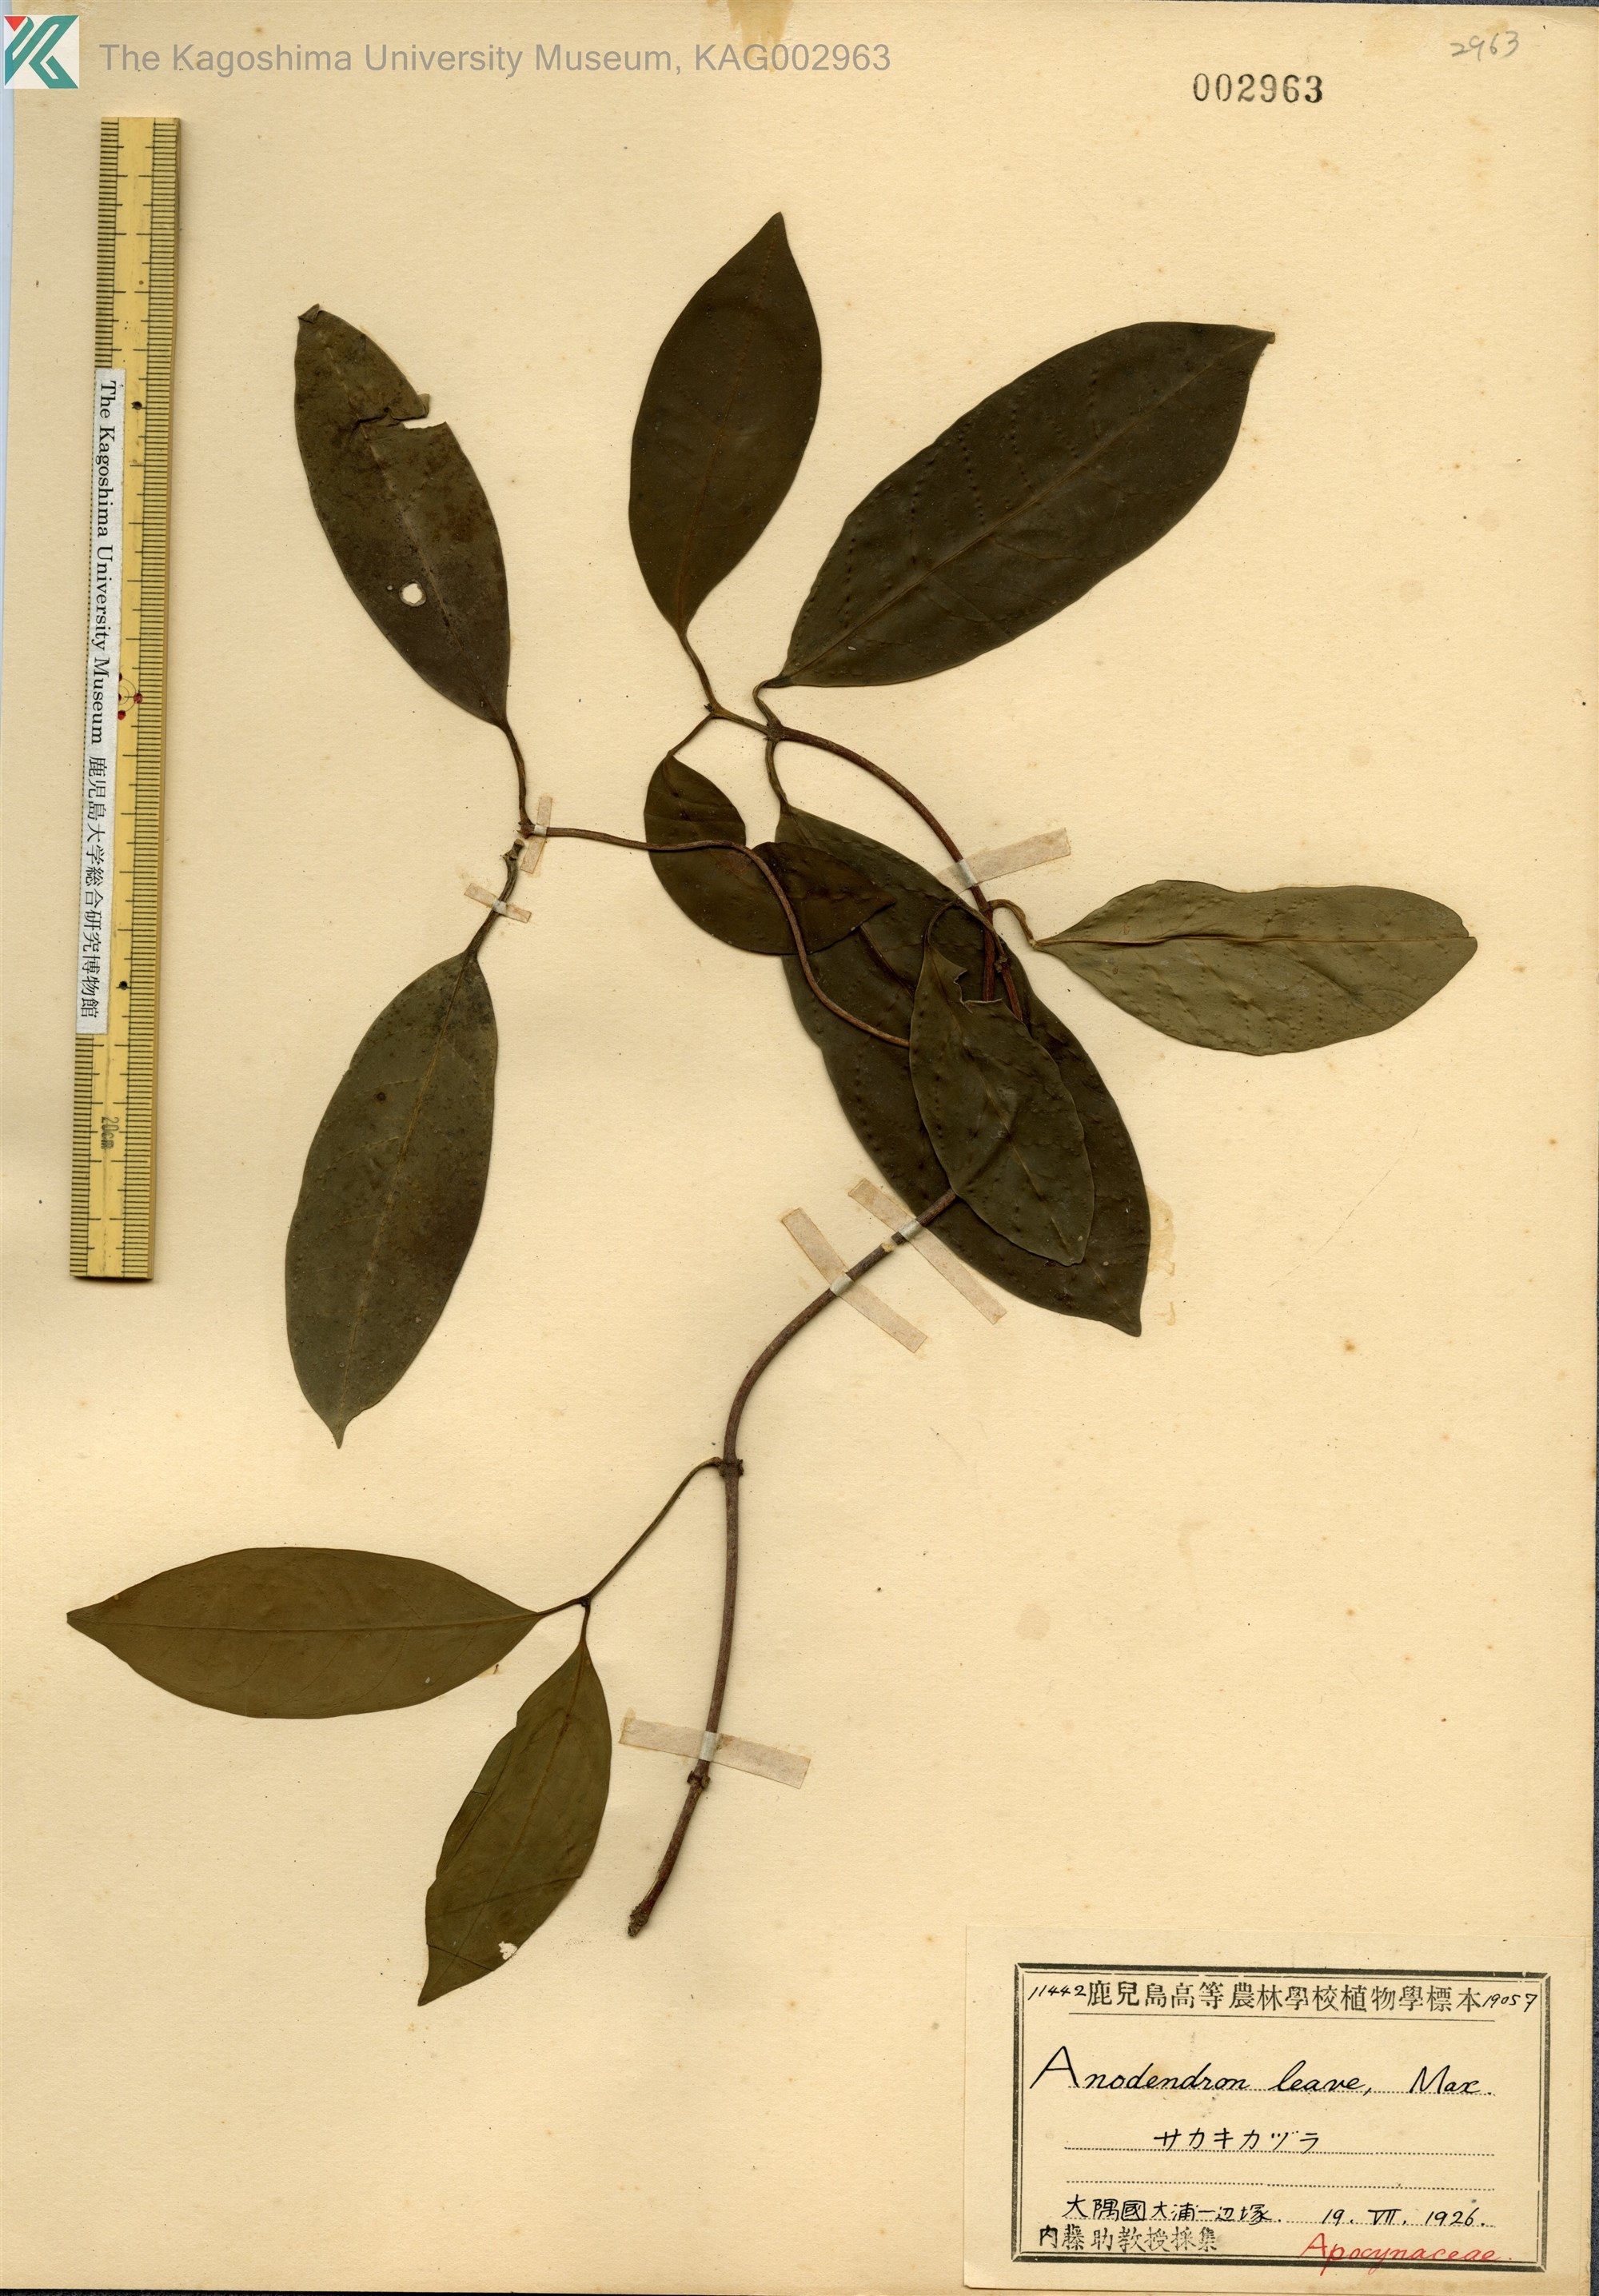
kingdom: Plantae
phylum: Tracheophyta
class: Magnoliopsida
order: Gentianales
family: Apocynaceae
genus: Anodendron
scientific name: Anodendron affine
